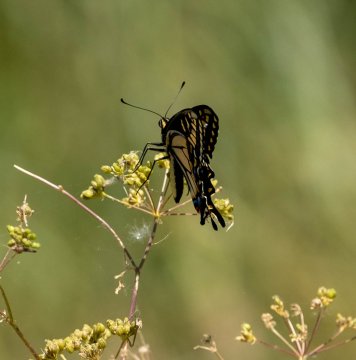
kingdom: Animalia
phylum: Arthropoda
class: Insecta
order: Lepidoptera
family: Papilionidae
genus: Papilio
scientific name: Papilio zelicaon
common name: Anise Swallowtail
